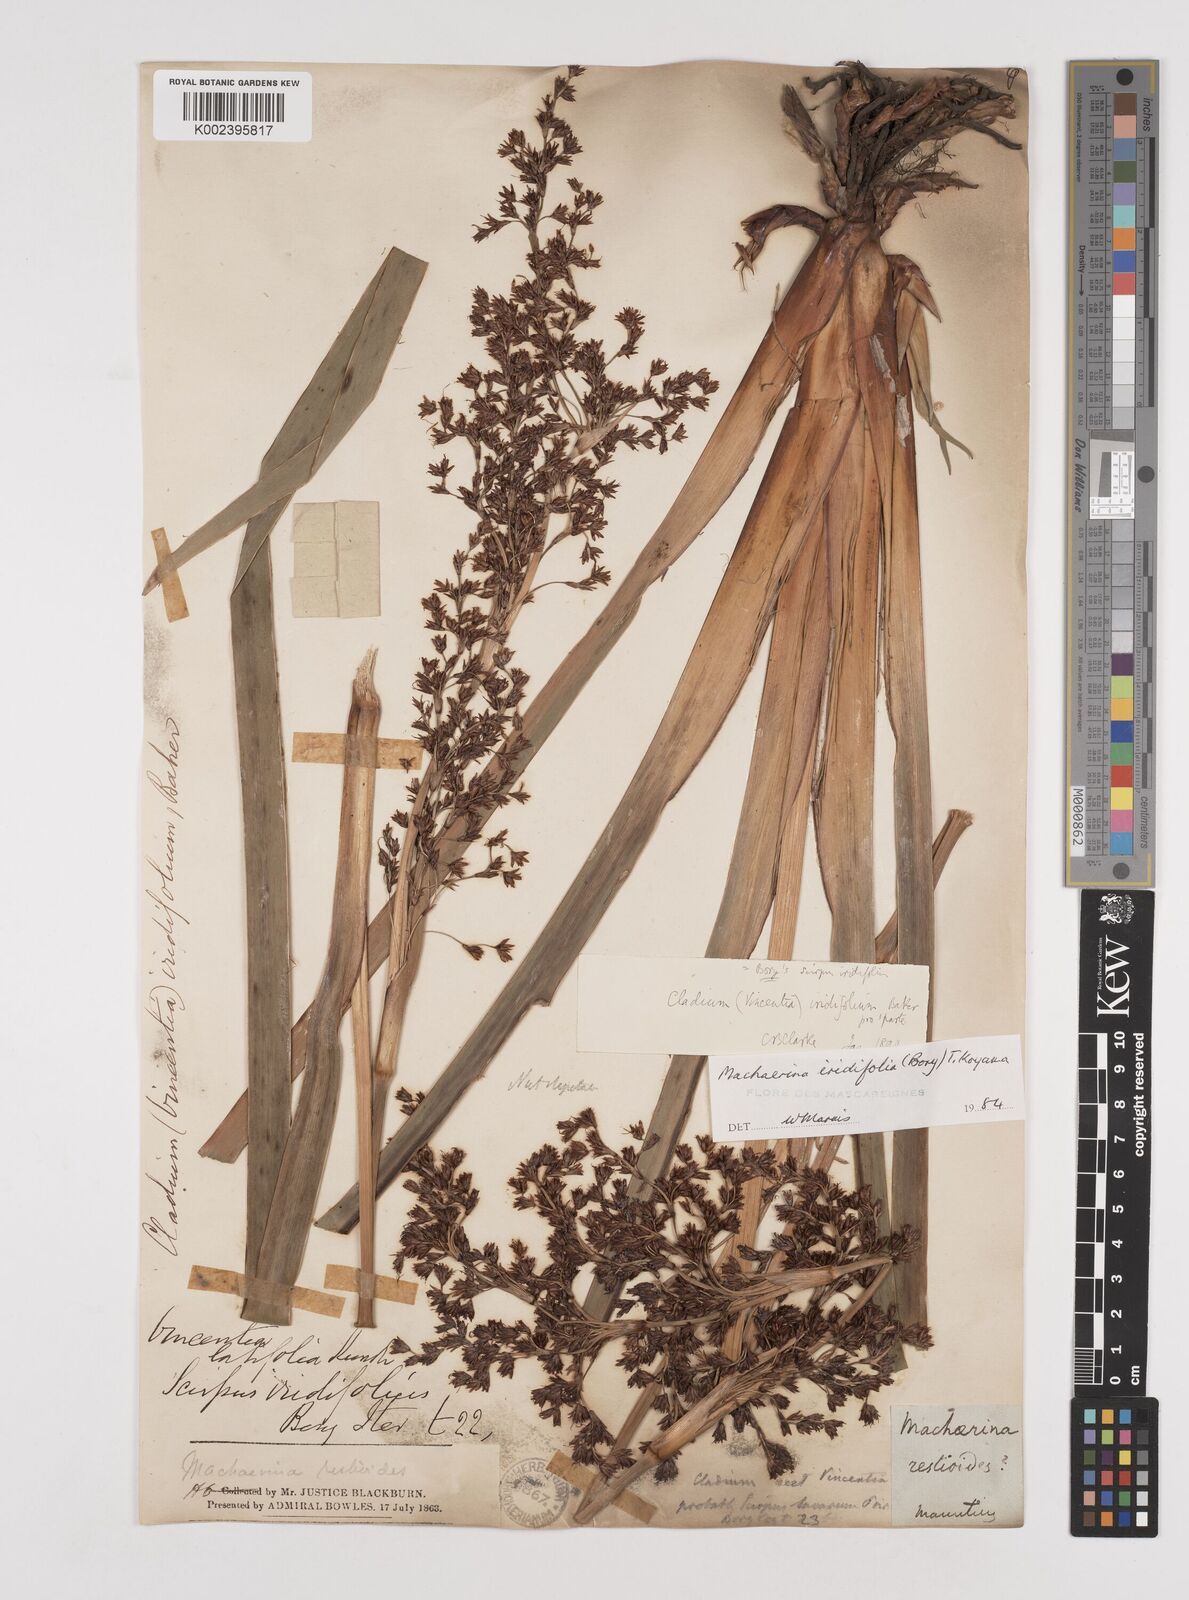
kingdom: Plantae
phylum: Tracheophyta
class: Liliopsida
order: Poales
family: Cyperaceae
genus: Machaerina
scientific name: Machaerina iridifolia
